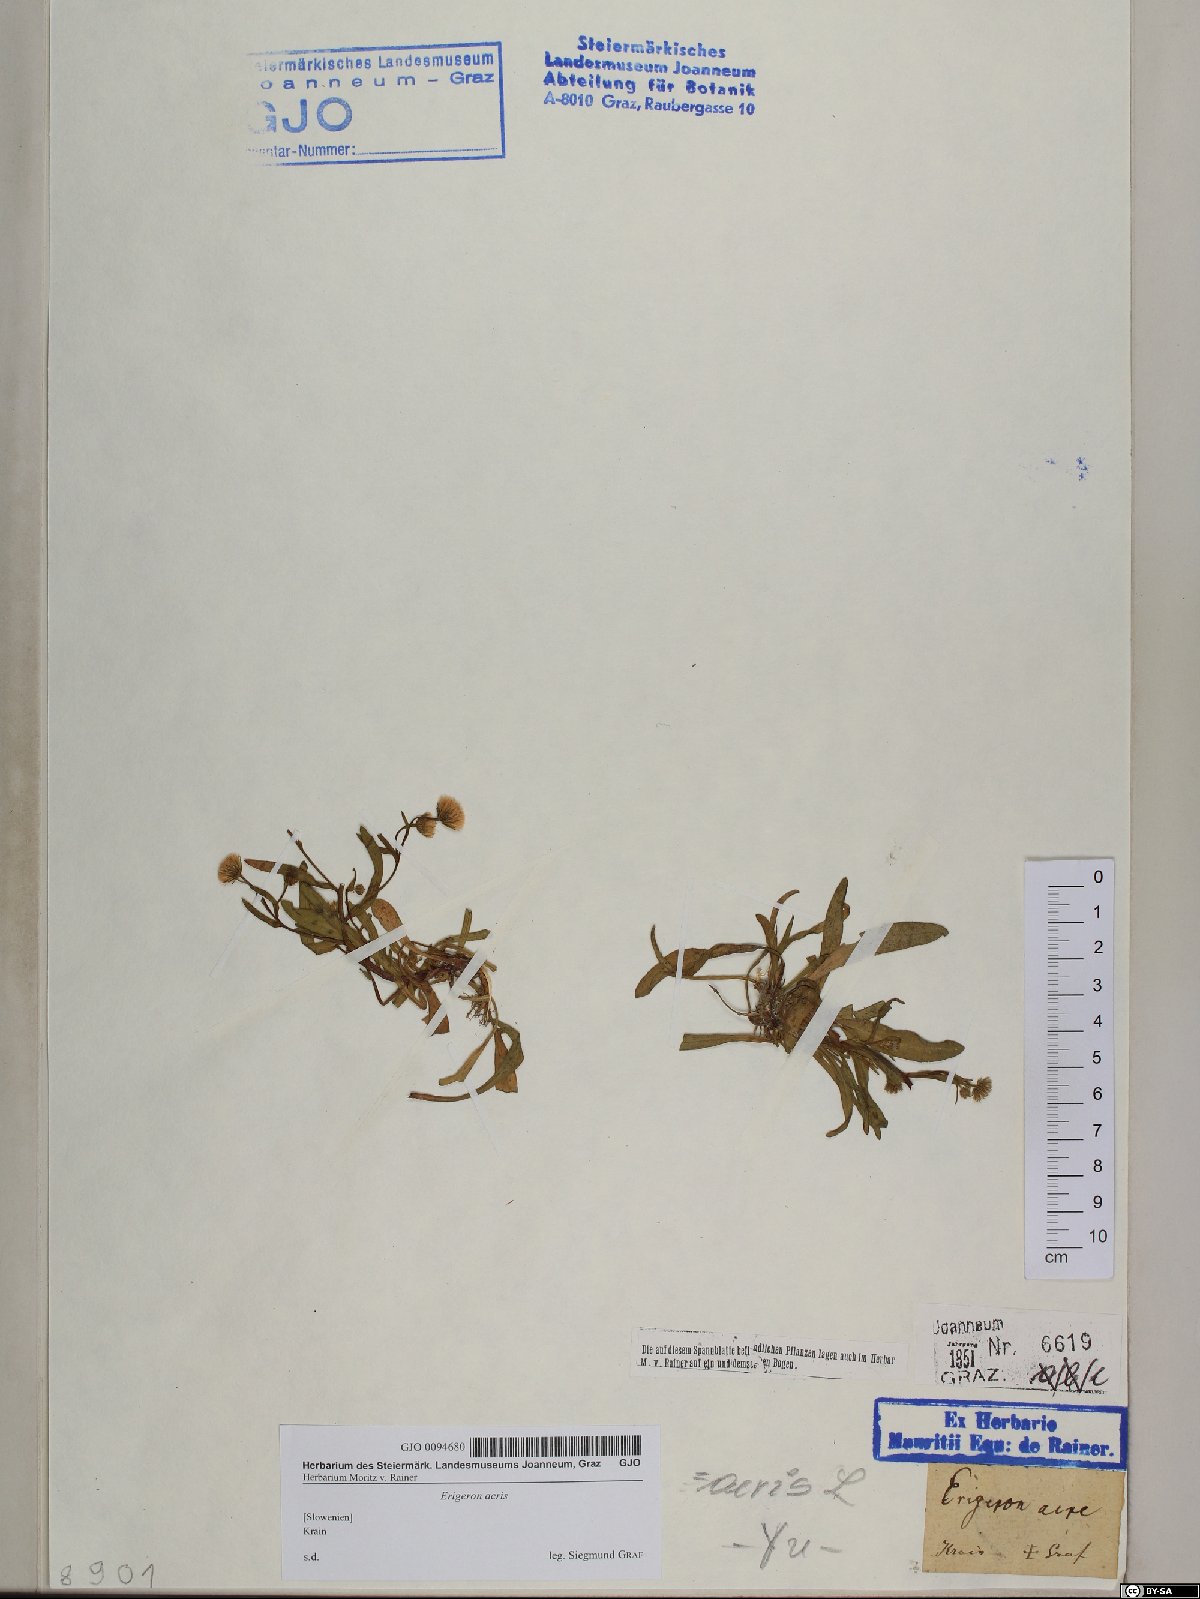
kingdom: Plantae
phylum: Tracheophyta
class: Magnoliopsida
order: Asterales
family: Asteraceae
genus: Erigeron
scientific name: Erigeron acris
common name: Blue fleabane
